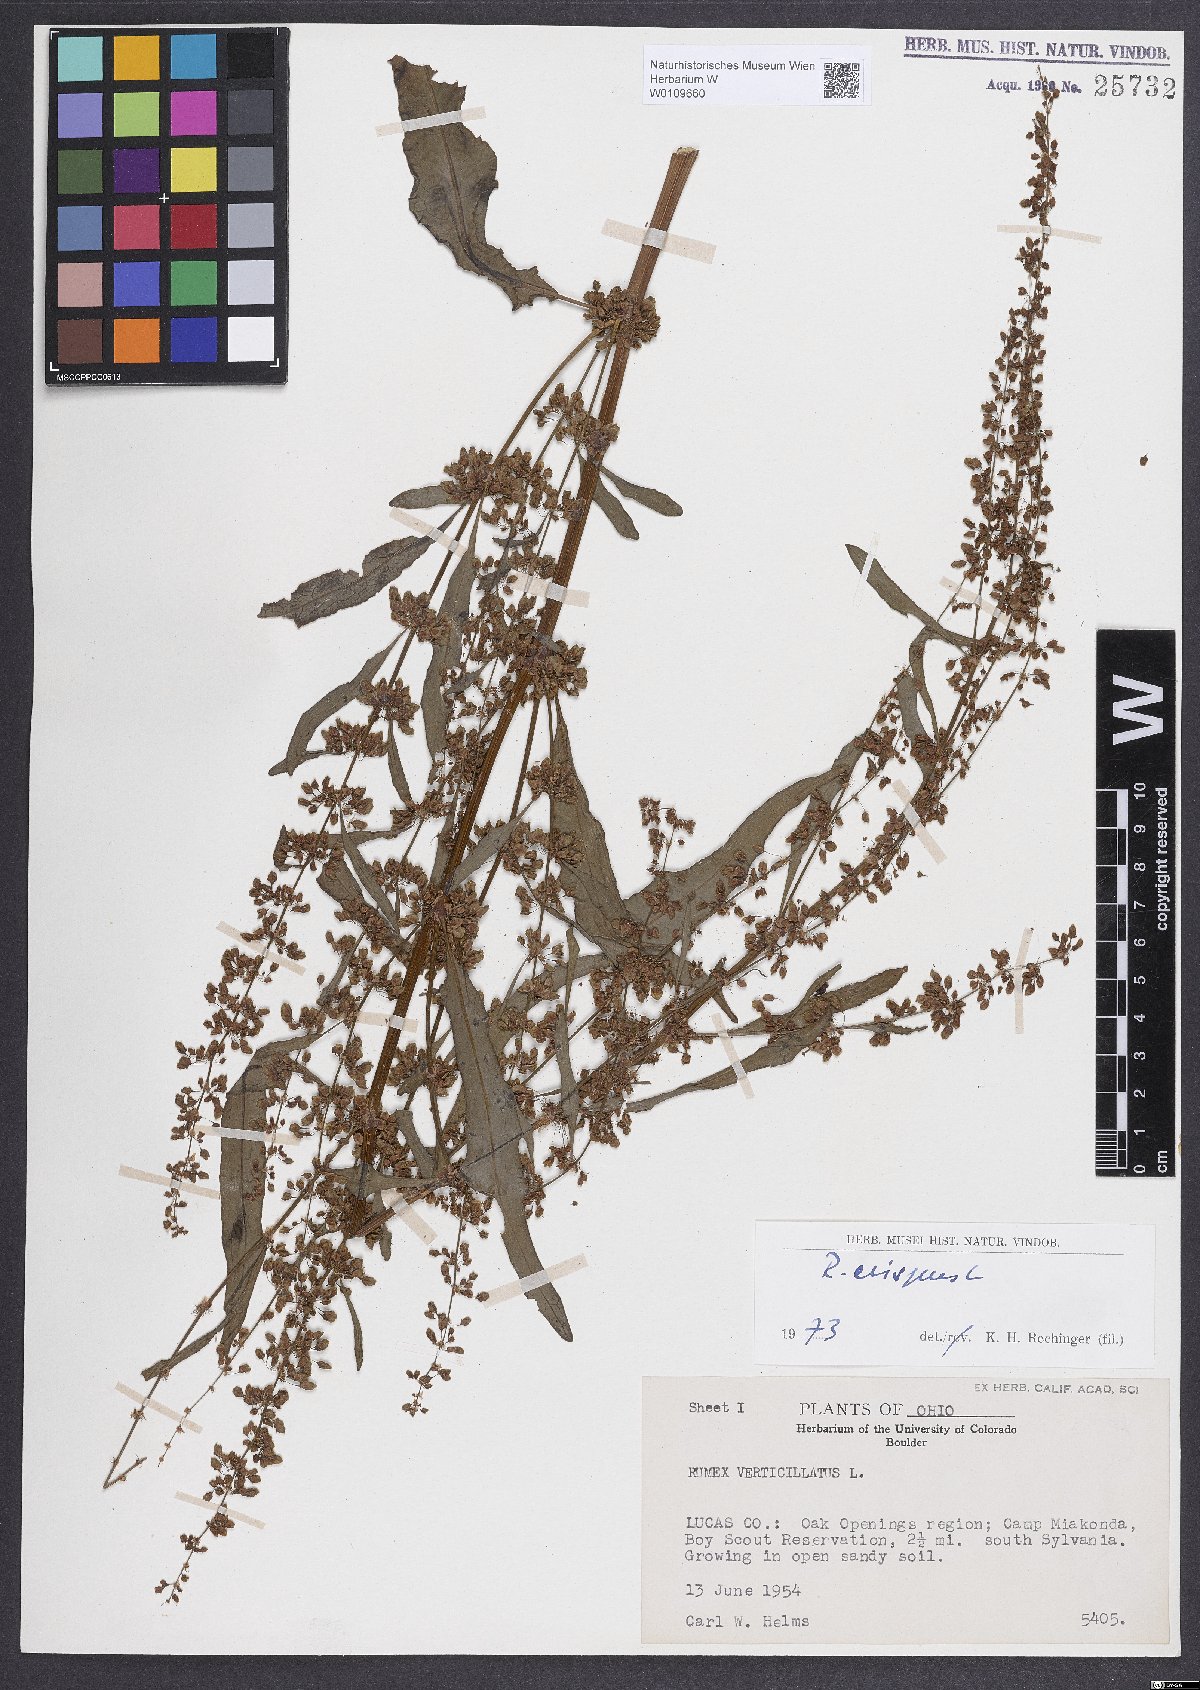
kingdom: Plantae
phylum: Tracheophyta
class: Magnoliopsida
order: Caryophyllales
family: Polygonaceae
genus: Rumex
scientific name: Rumex crispus
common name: Curled dock
